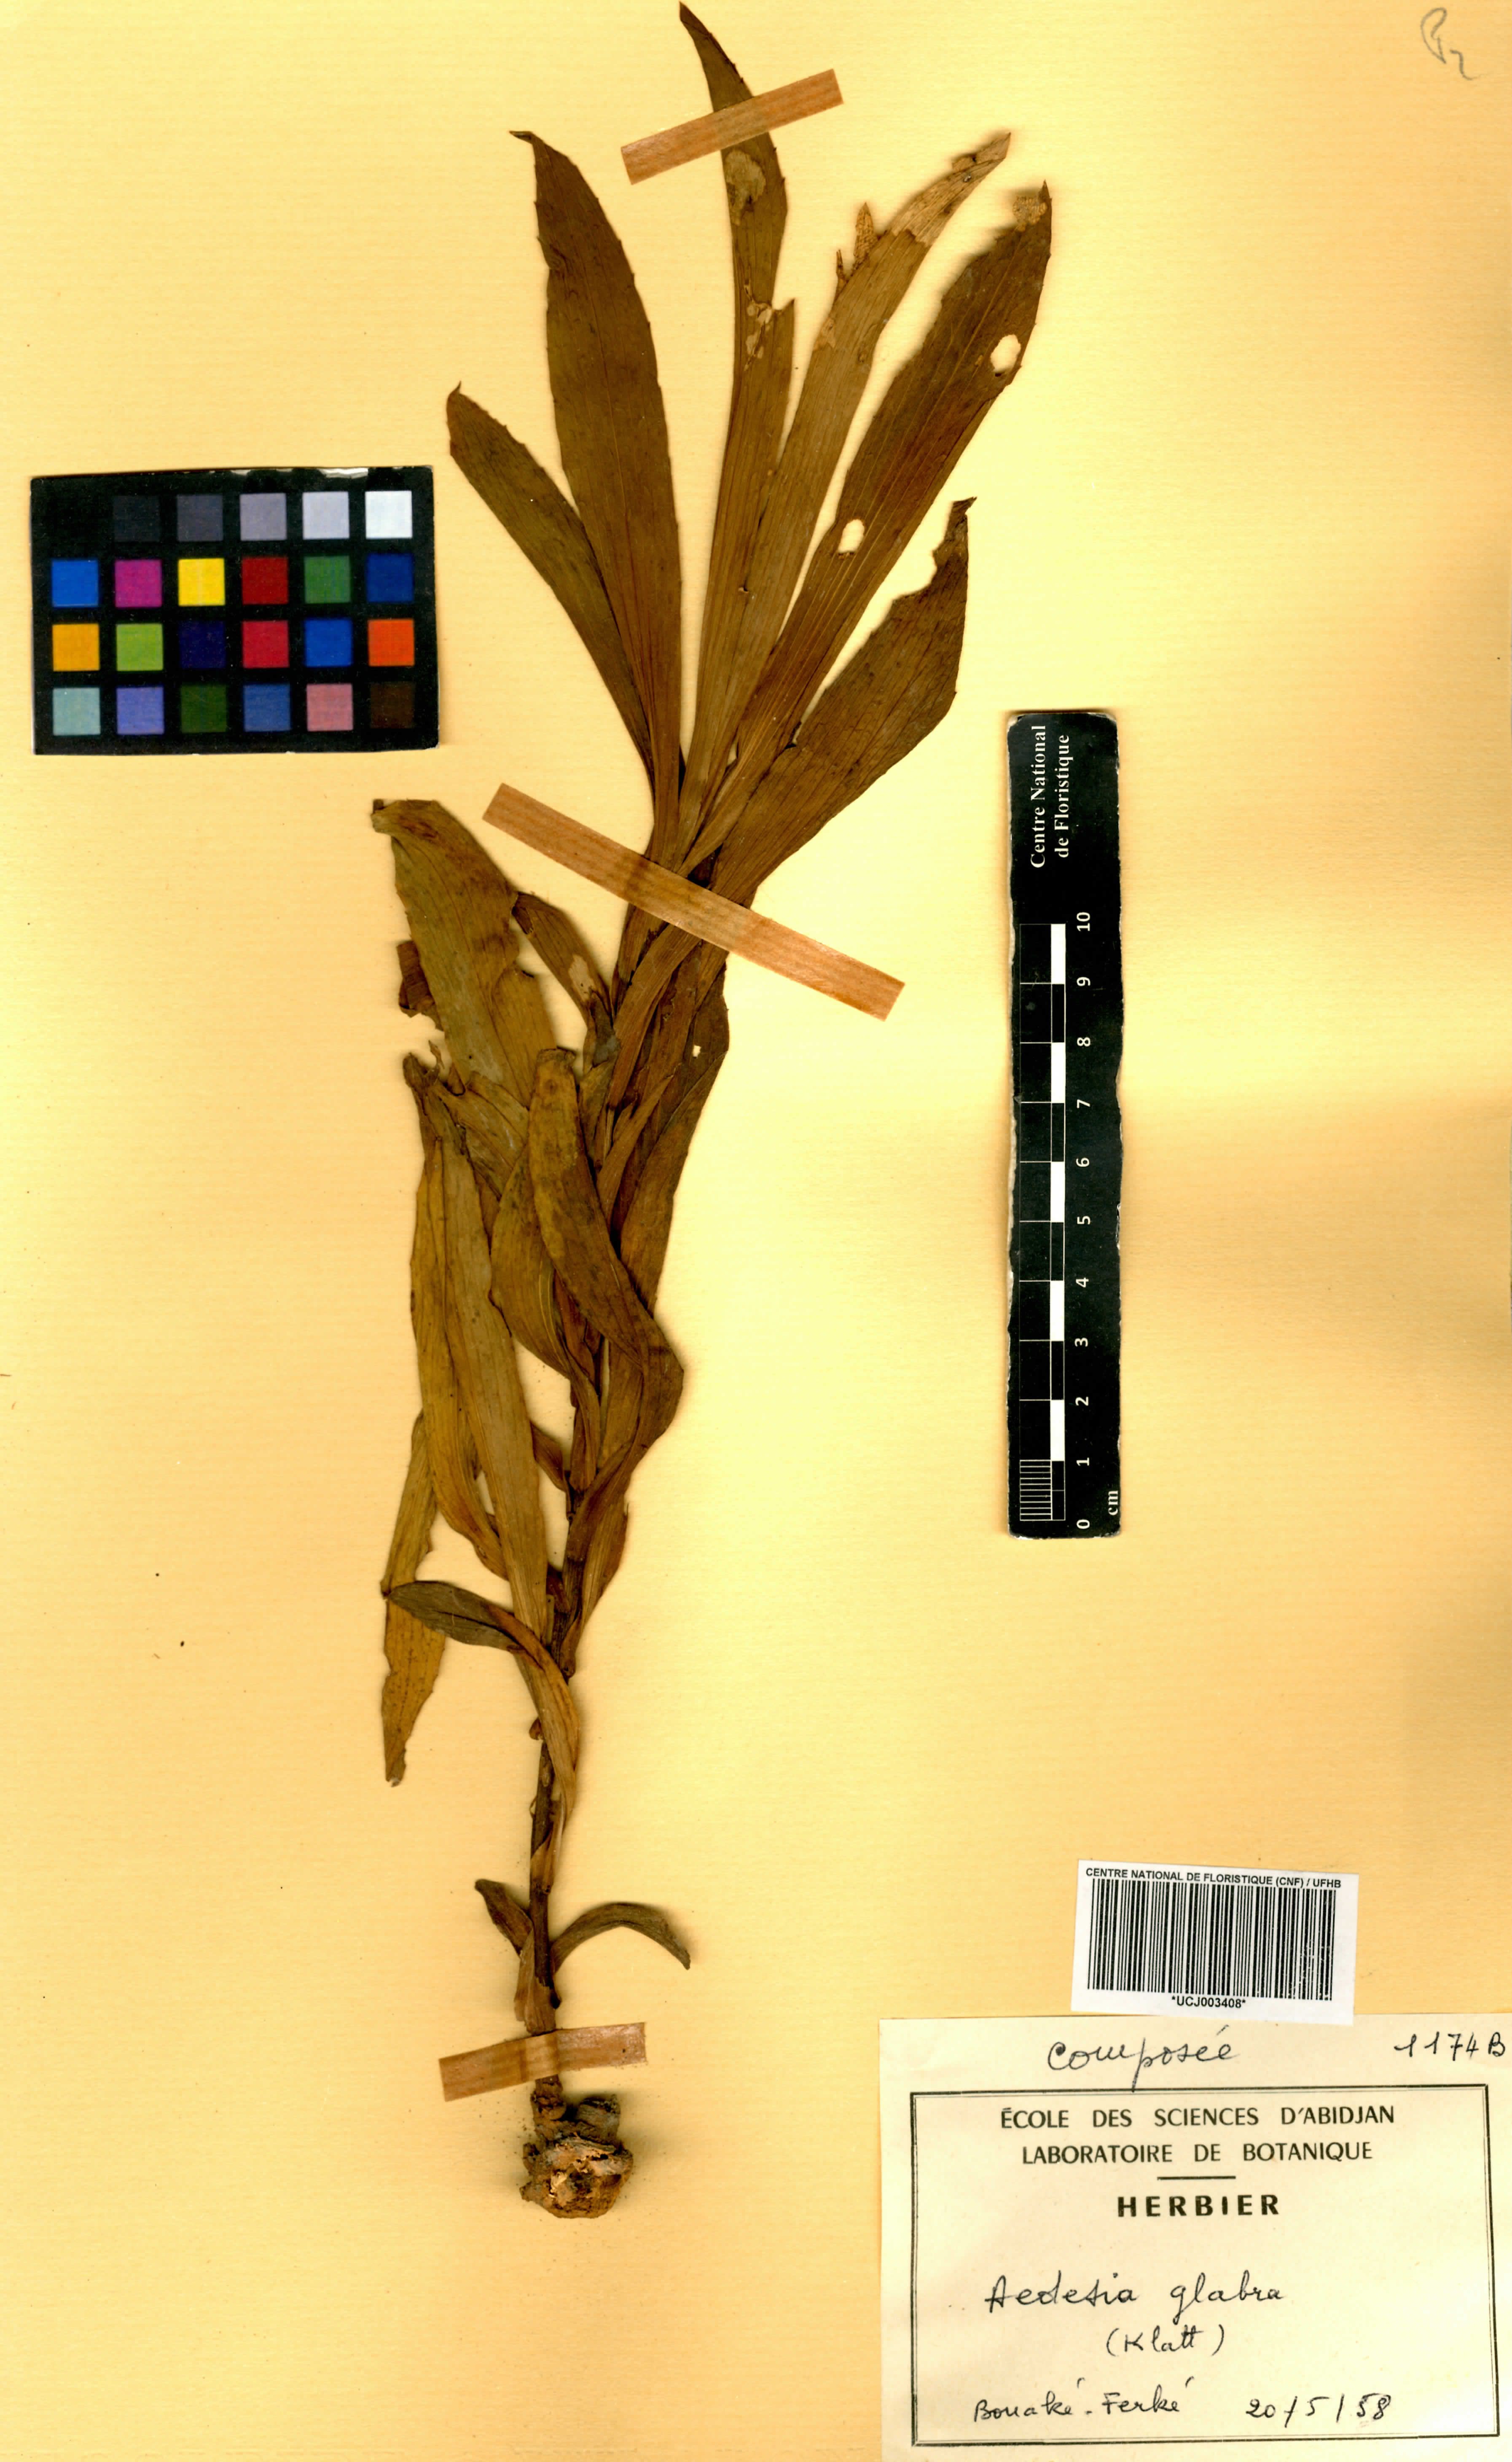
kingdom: Plantae
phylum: Tracheophyta
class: Magnoliopsida
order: Asterales
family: Asteraceae
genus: Aedesia
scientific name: Aedesia glabra
